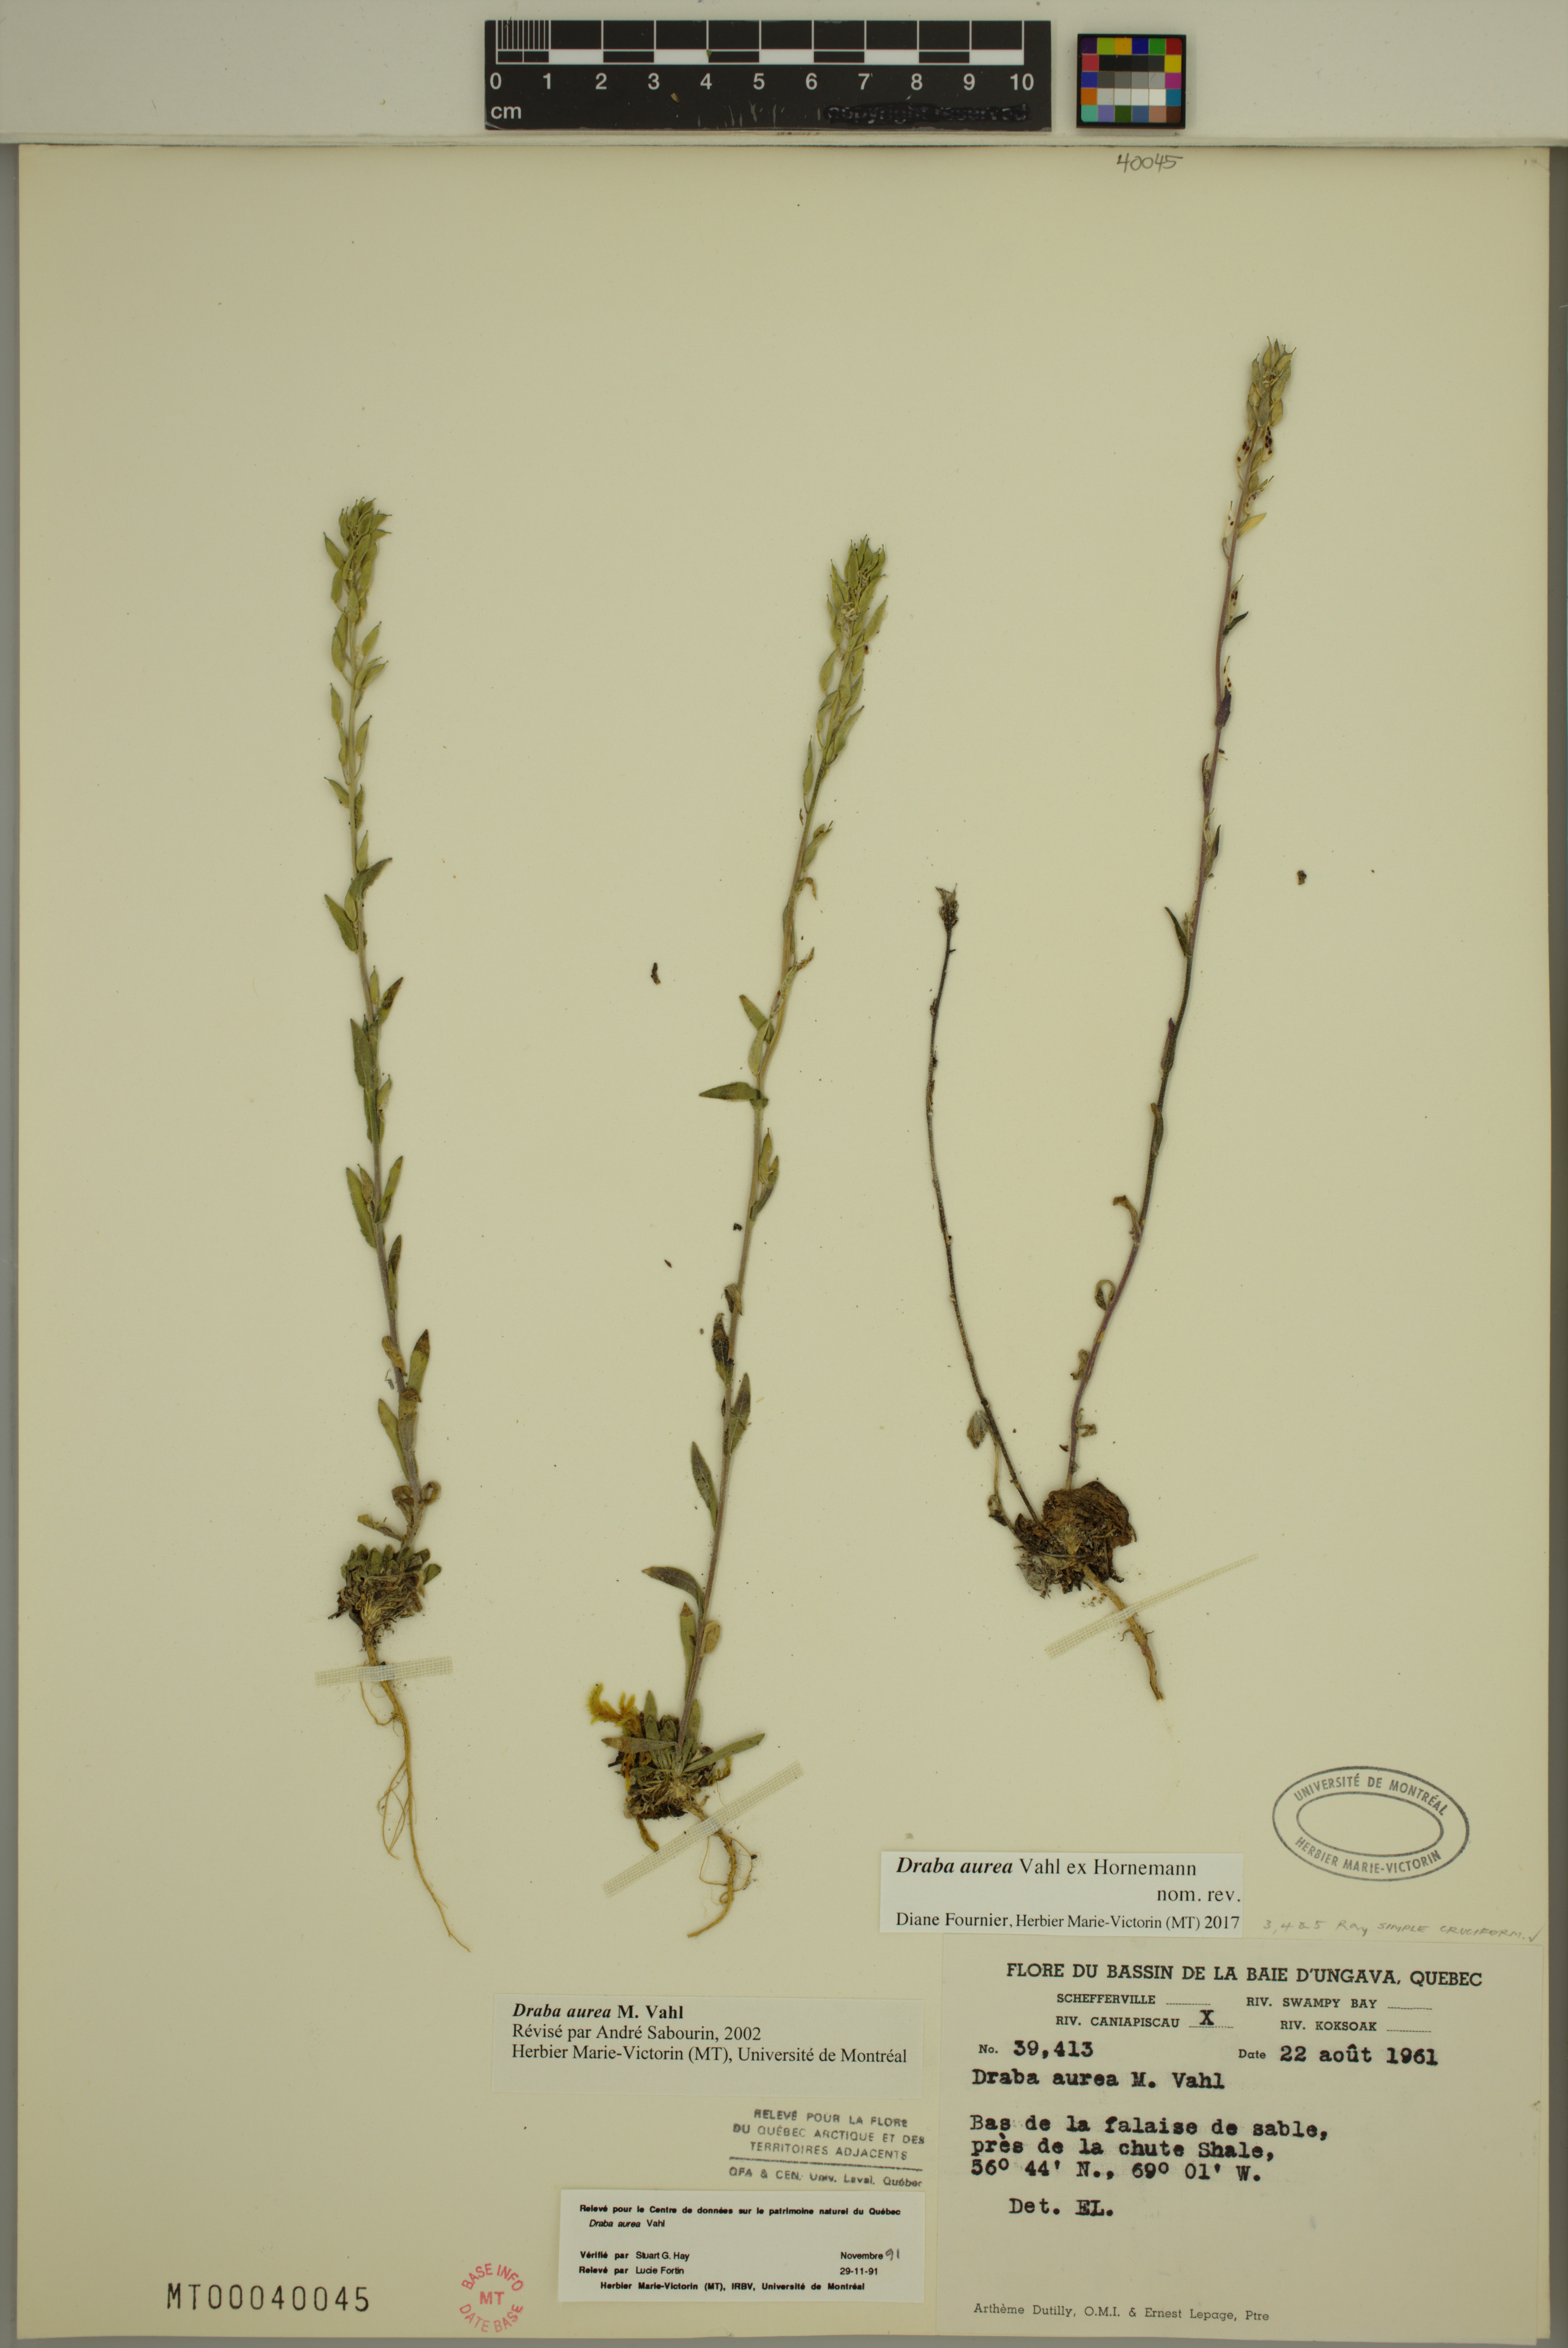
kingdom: Plantae
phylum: Tracheophyta
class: Magnoliopsida
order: Brassicales
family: Brassicaceae
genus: Draba
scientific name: Draba aurea
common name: Golden draba
